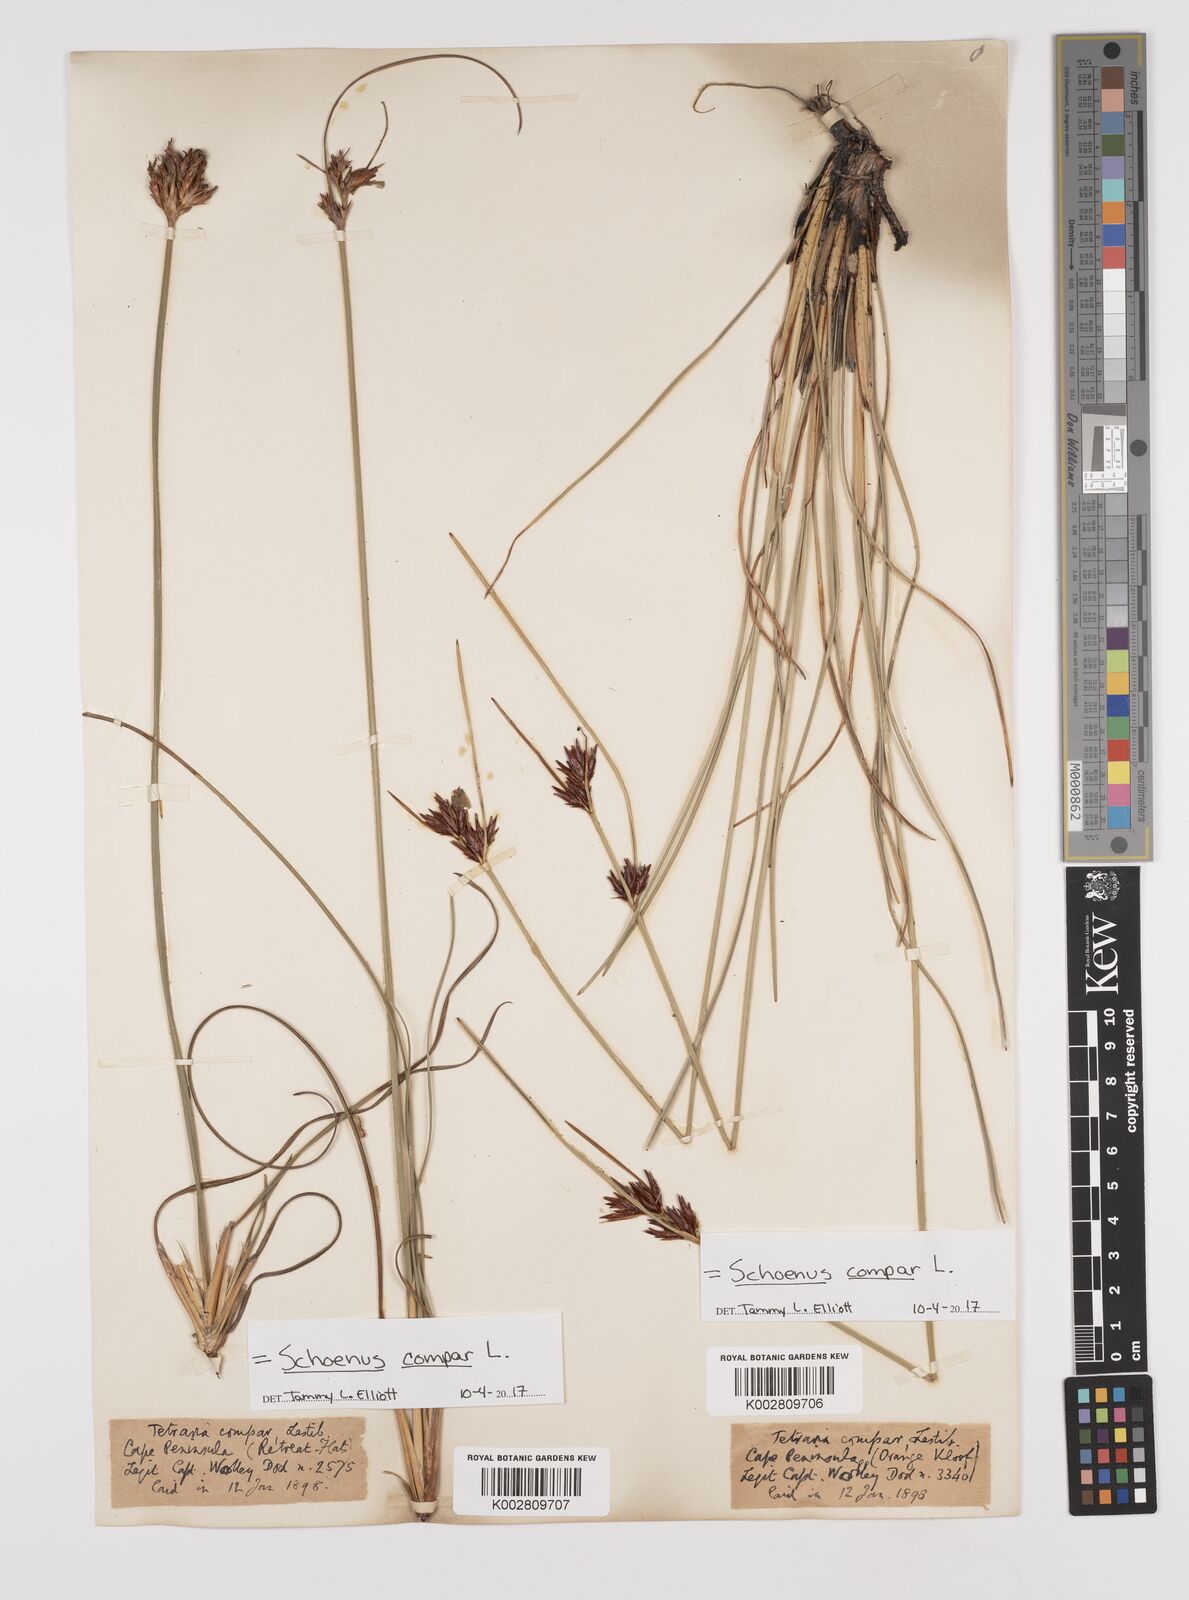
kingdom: Plantae
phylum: Tracheophyta
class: Liliopsida
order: Poales
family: Cyperaceae
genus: Schoenus
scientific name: Schoenus compar
